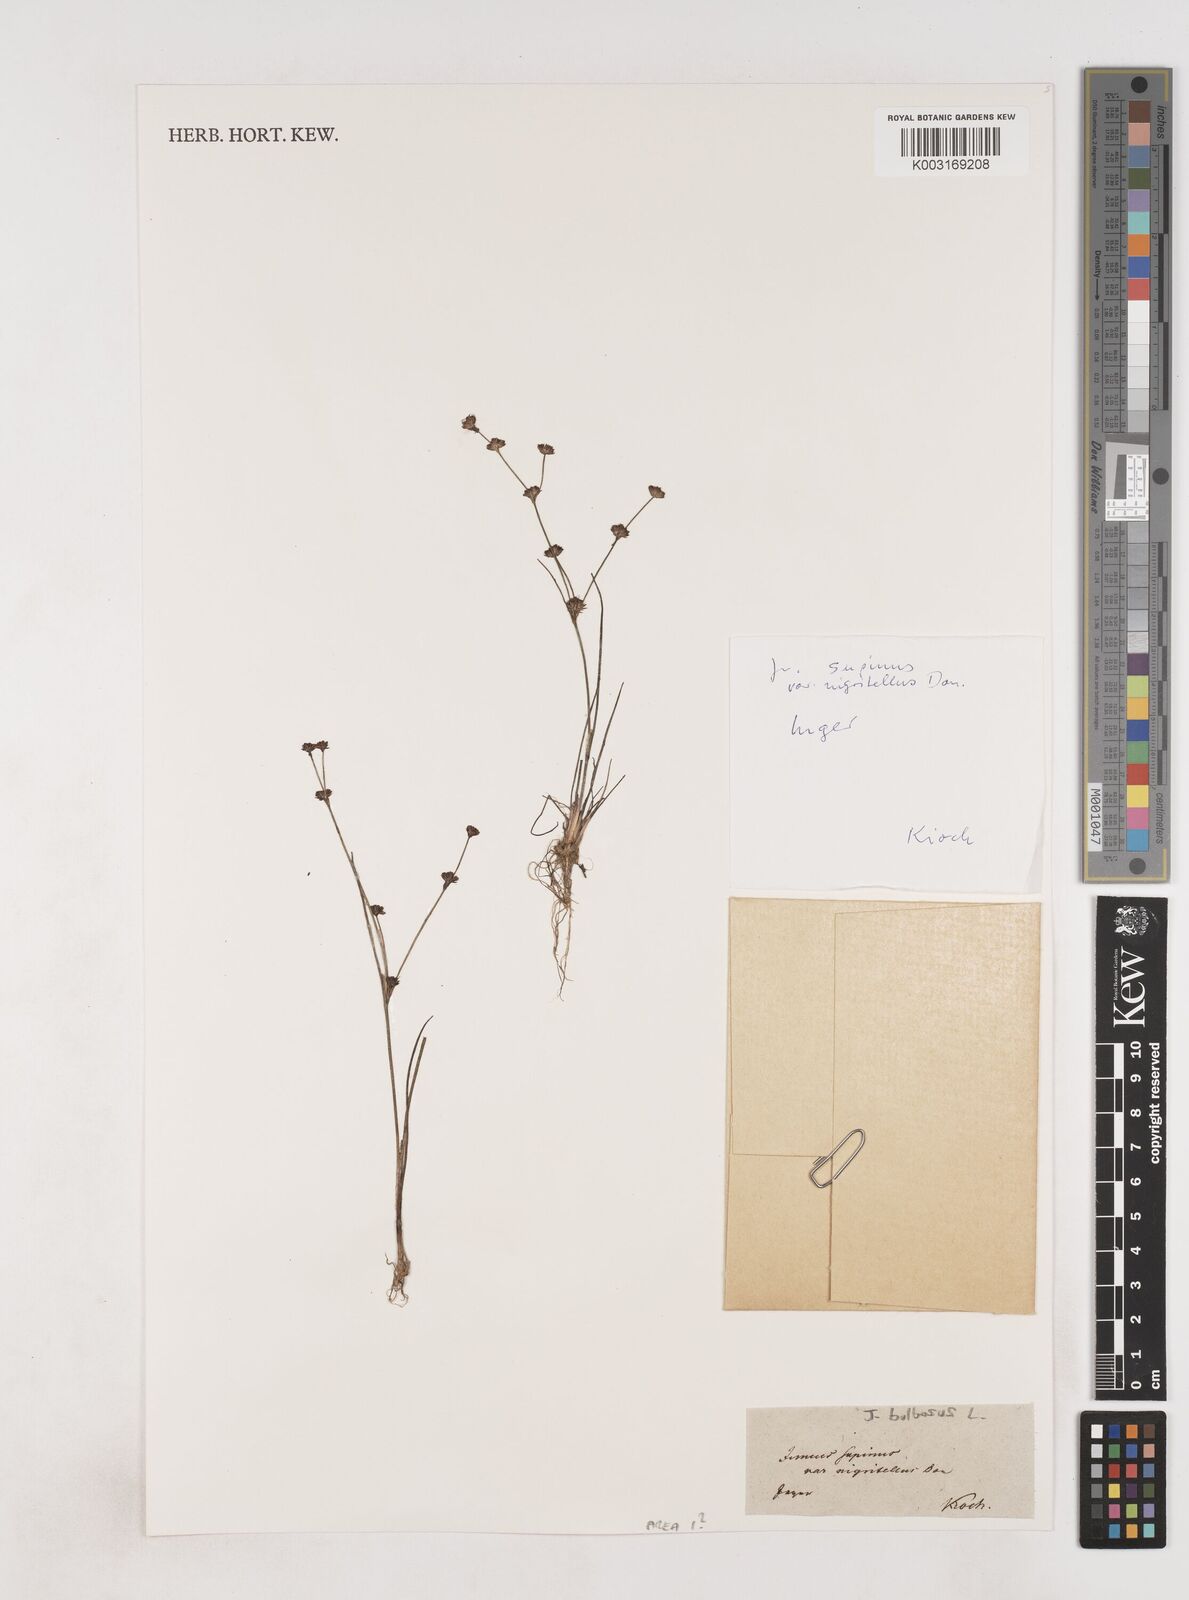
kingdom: Plantae
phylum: Tracheophyta
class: Liliopsida
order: Poales
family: Juncaceae
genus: Juncus
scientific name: Juncus bulbosus
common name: Bulbous rush
